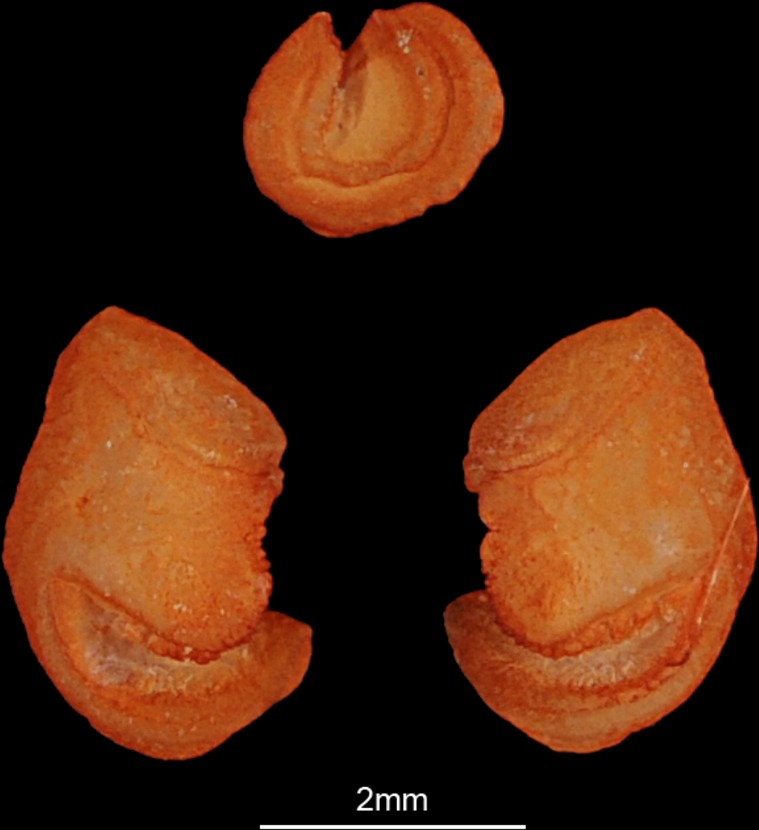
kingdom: Animalia
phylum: Chordata
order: Siluriformes
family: Schilbeidae
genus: Schilbe
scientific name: Schilbe mystus
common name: Silver catfish
